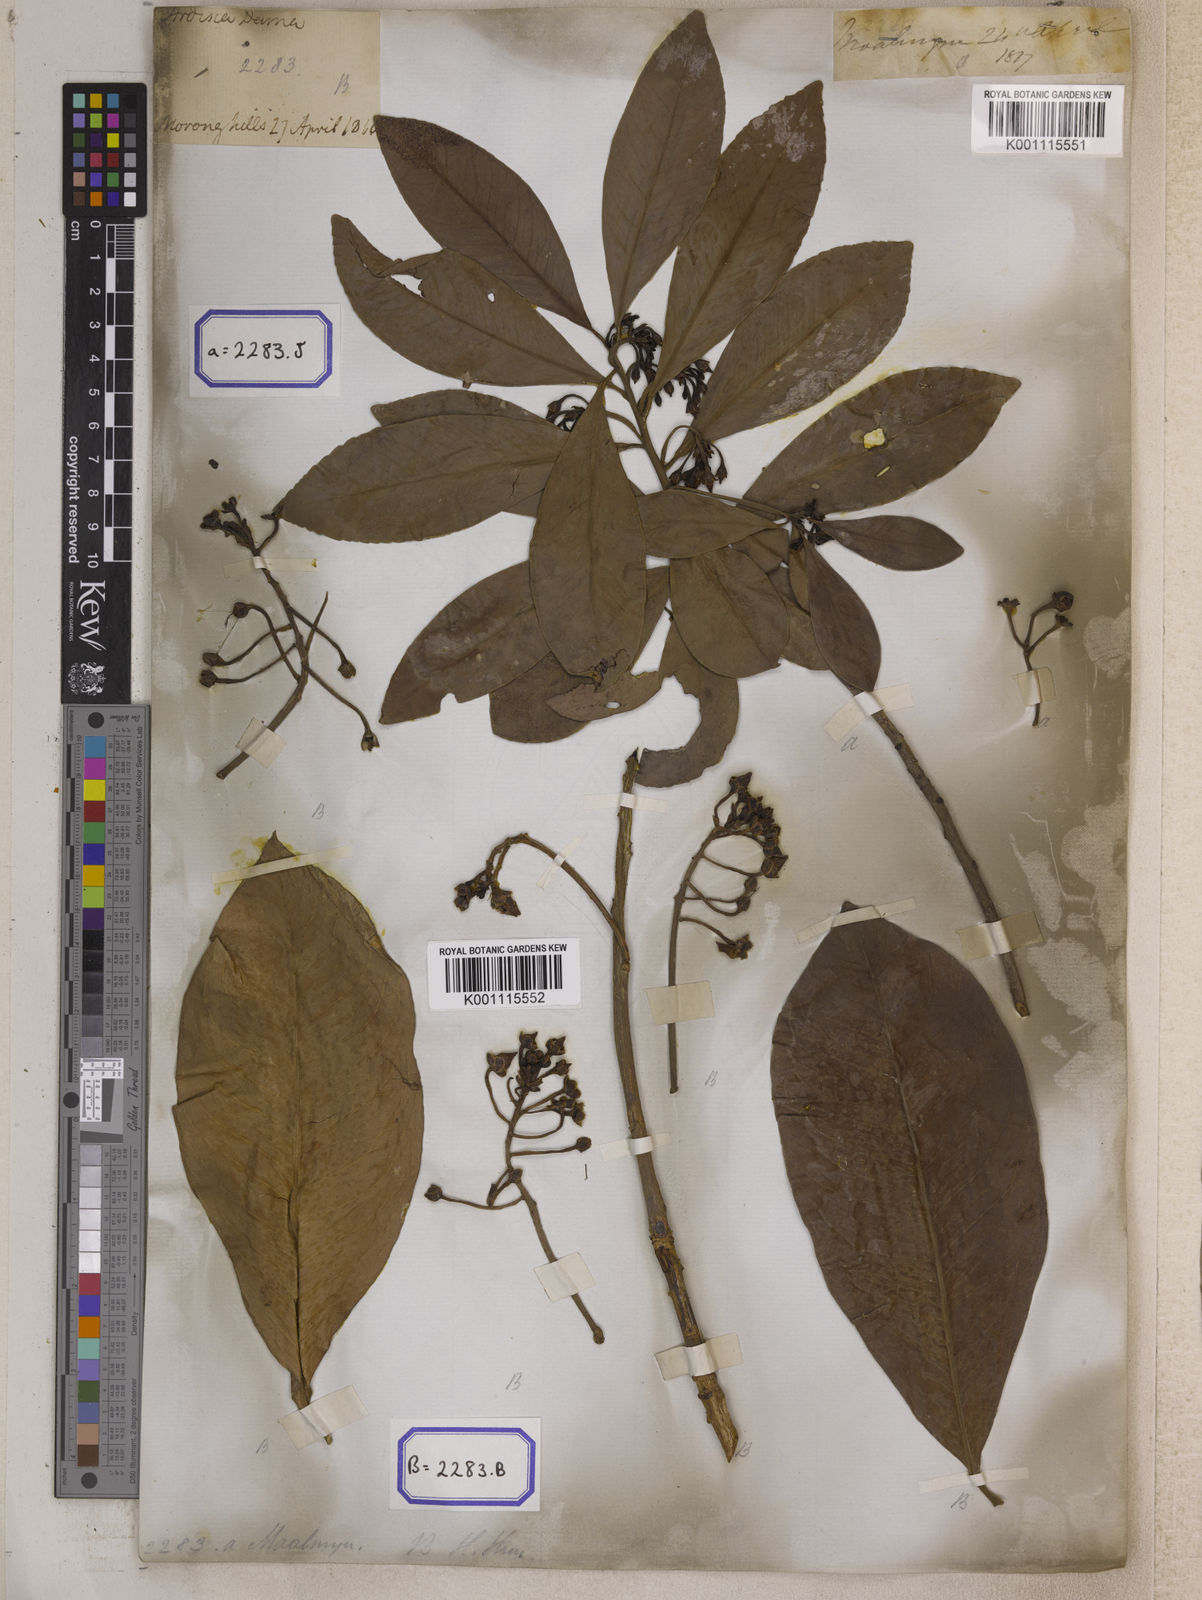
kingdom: Plantae
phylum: Tracheophyta
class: Magnoliopsida
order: Ericales
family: Primulaceae
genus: Ardisia
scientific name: Ardisia humilis
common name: Low shoebutton
